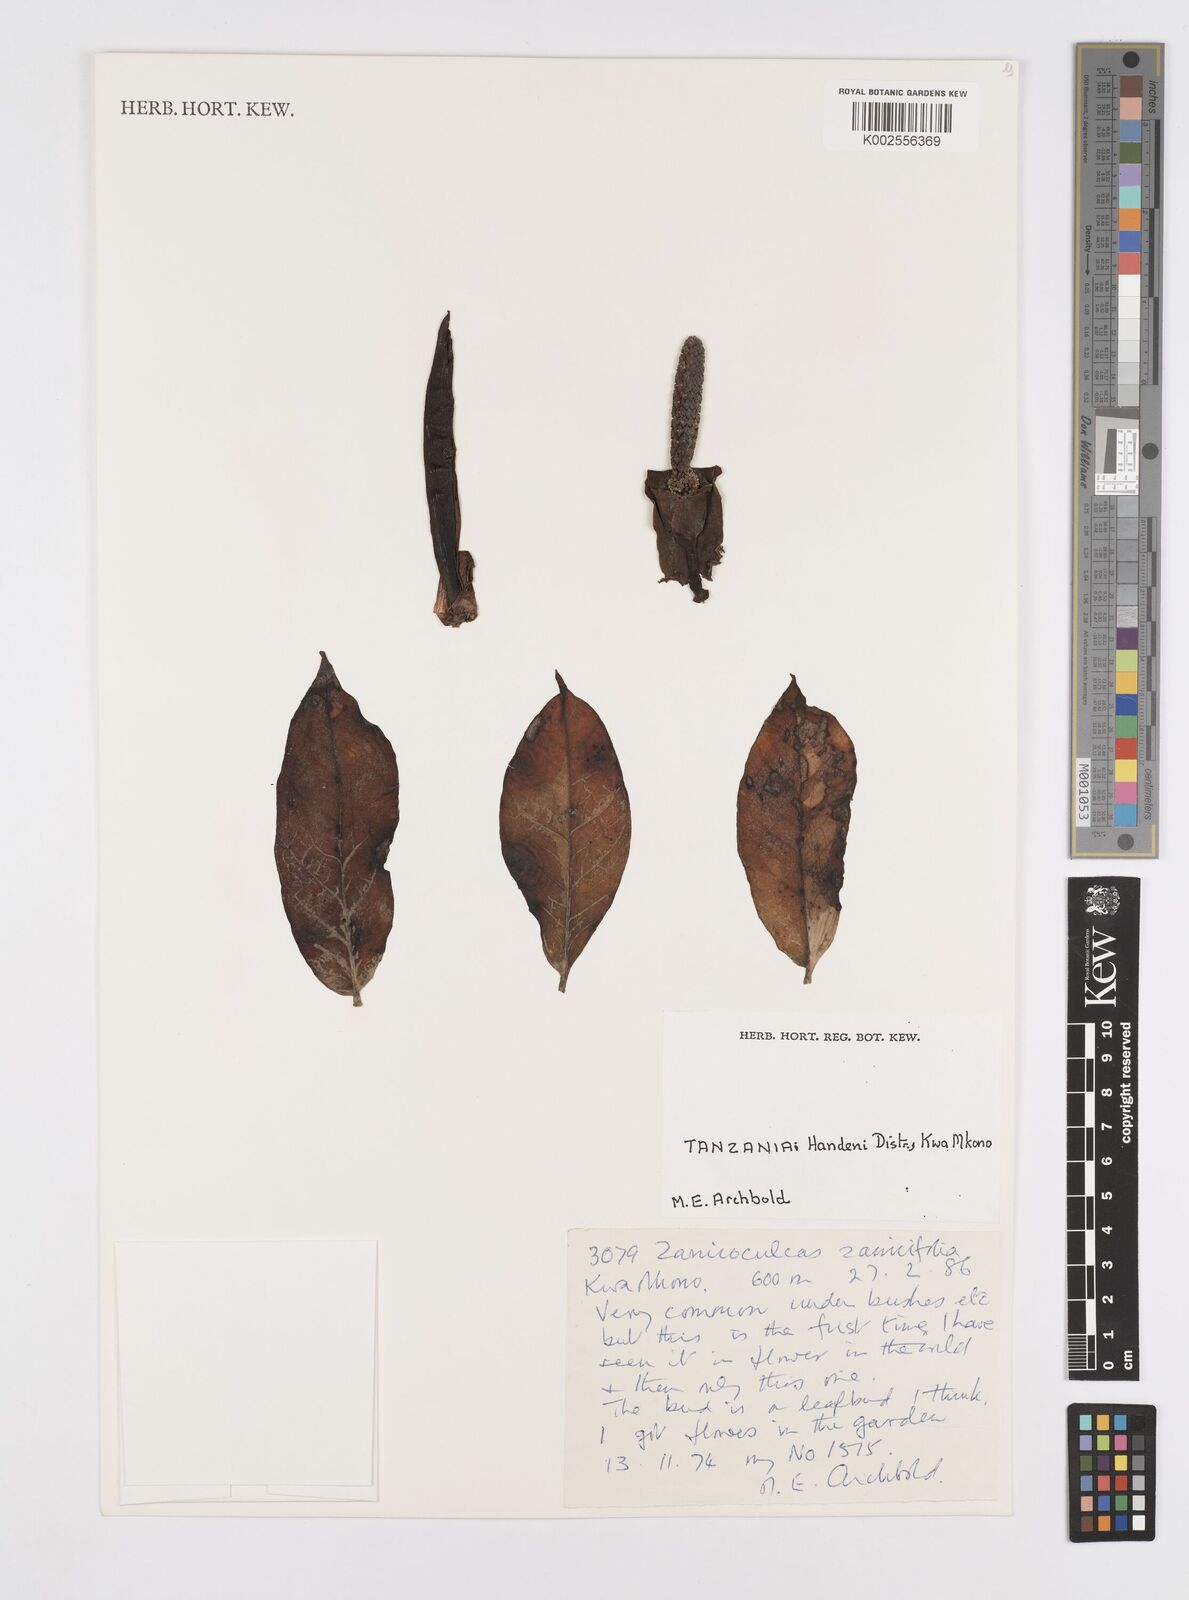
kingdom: Plantae
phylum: Tracheophyta
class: Liliopsida
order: Alismatales
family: Araceae
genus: Zamioculcas
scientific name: Zamioculcas zamiifolia
